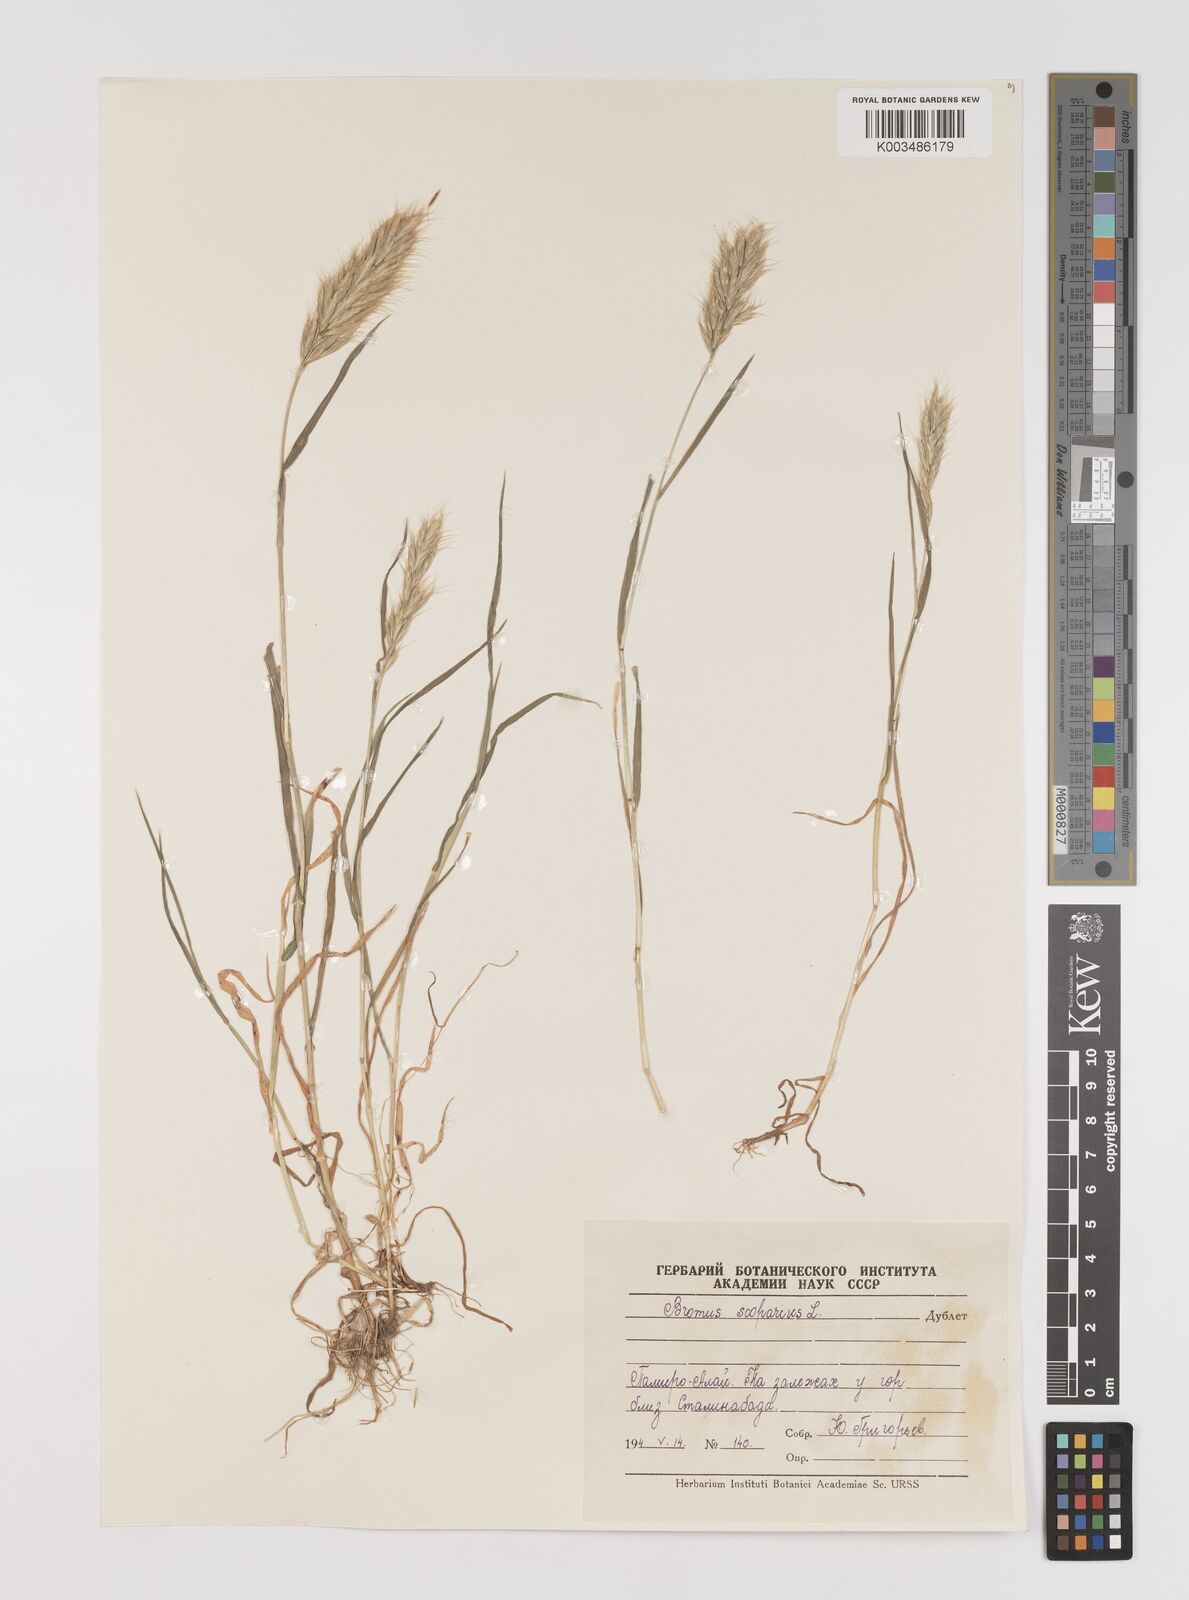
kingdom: Plantae
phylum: Tracheophyta
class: Liliopsida
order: Poales
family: Poaceae
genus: Bromus
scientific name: Bromus scoparius
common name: Broom brome
